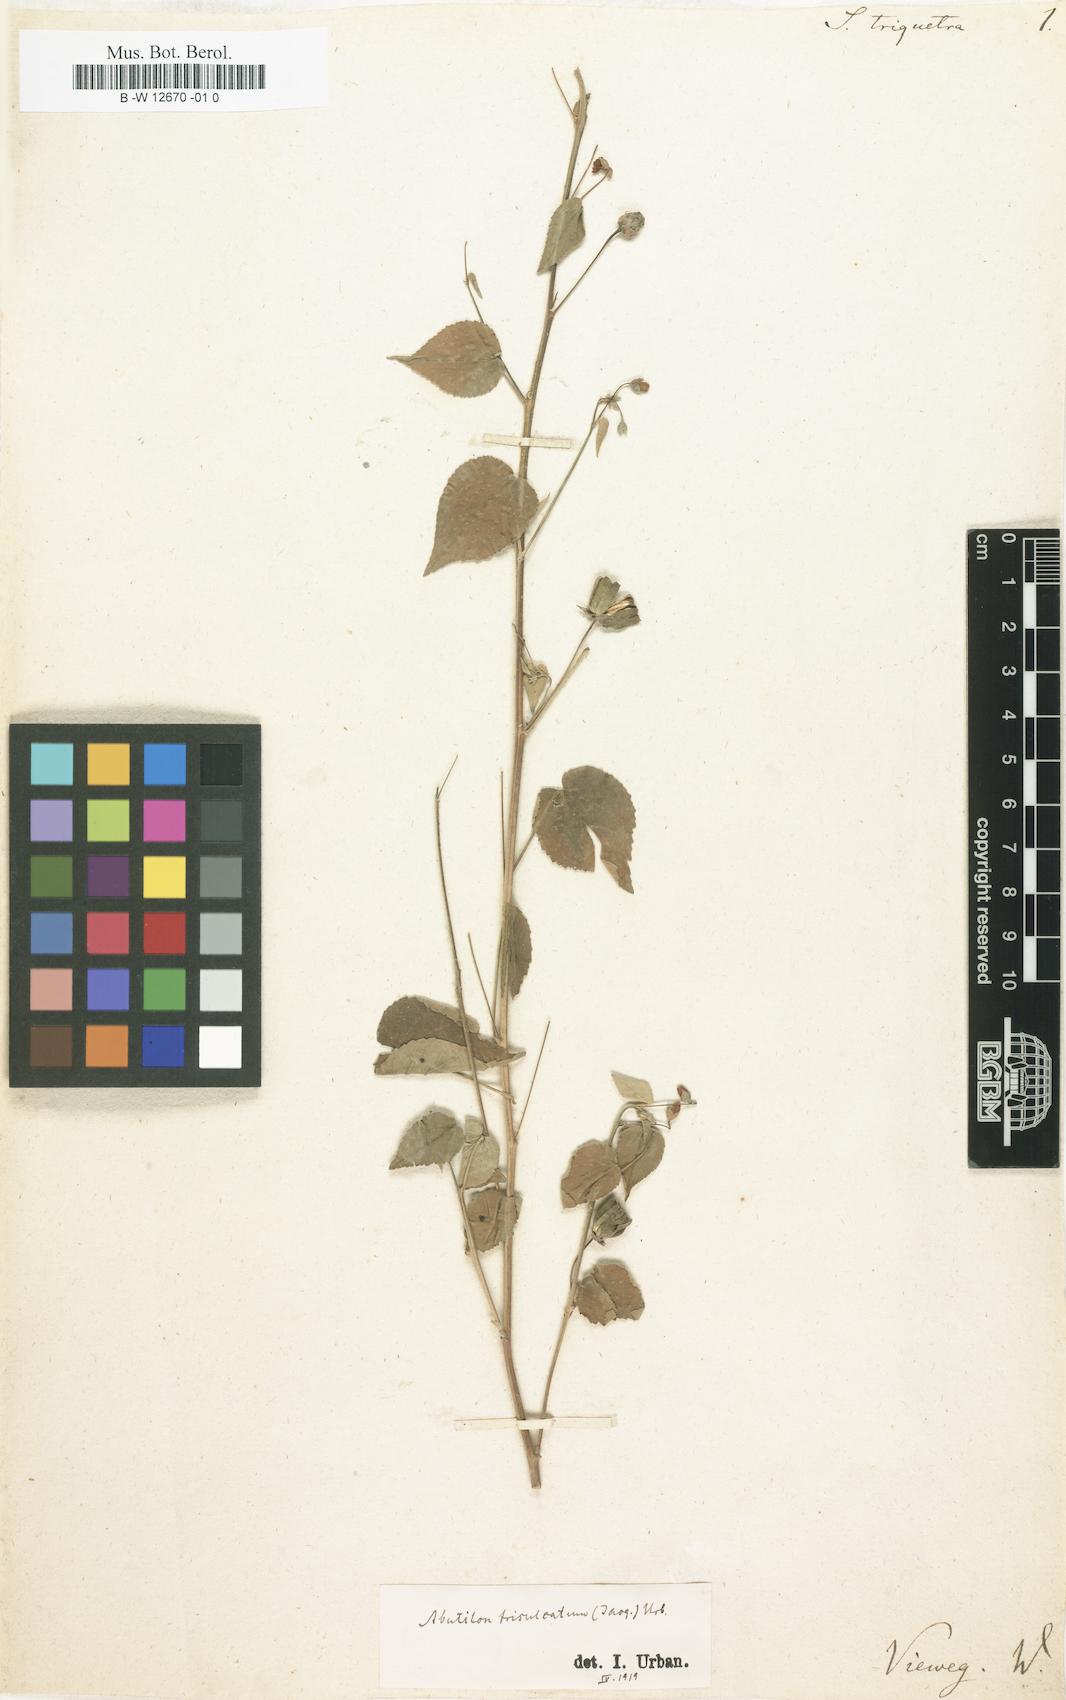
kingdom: Plantae
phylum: Tracheophyta
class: Magnoliopsida
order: Malvales
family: Malvaceae
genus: Sida
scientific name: Sida triquetra
